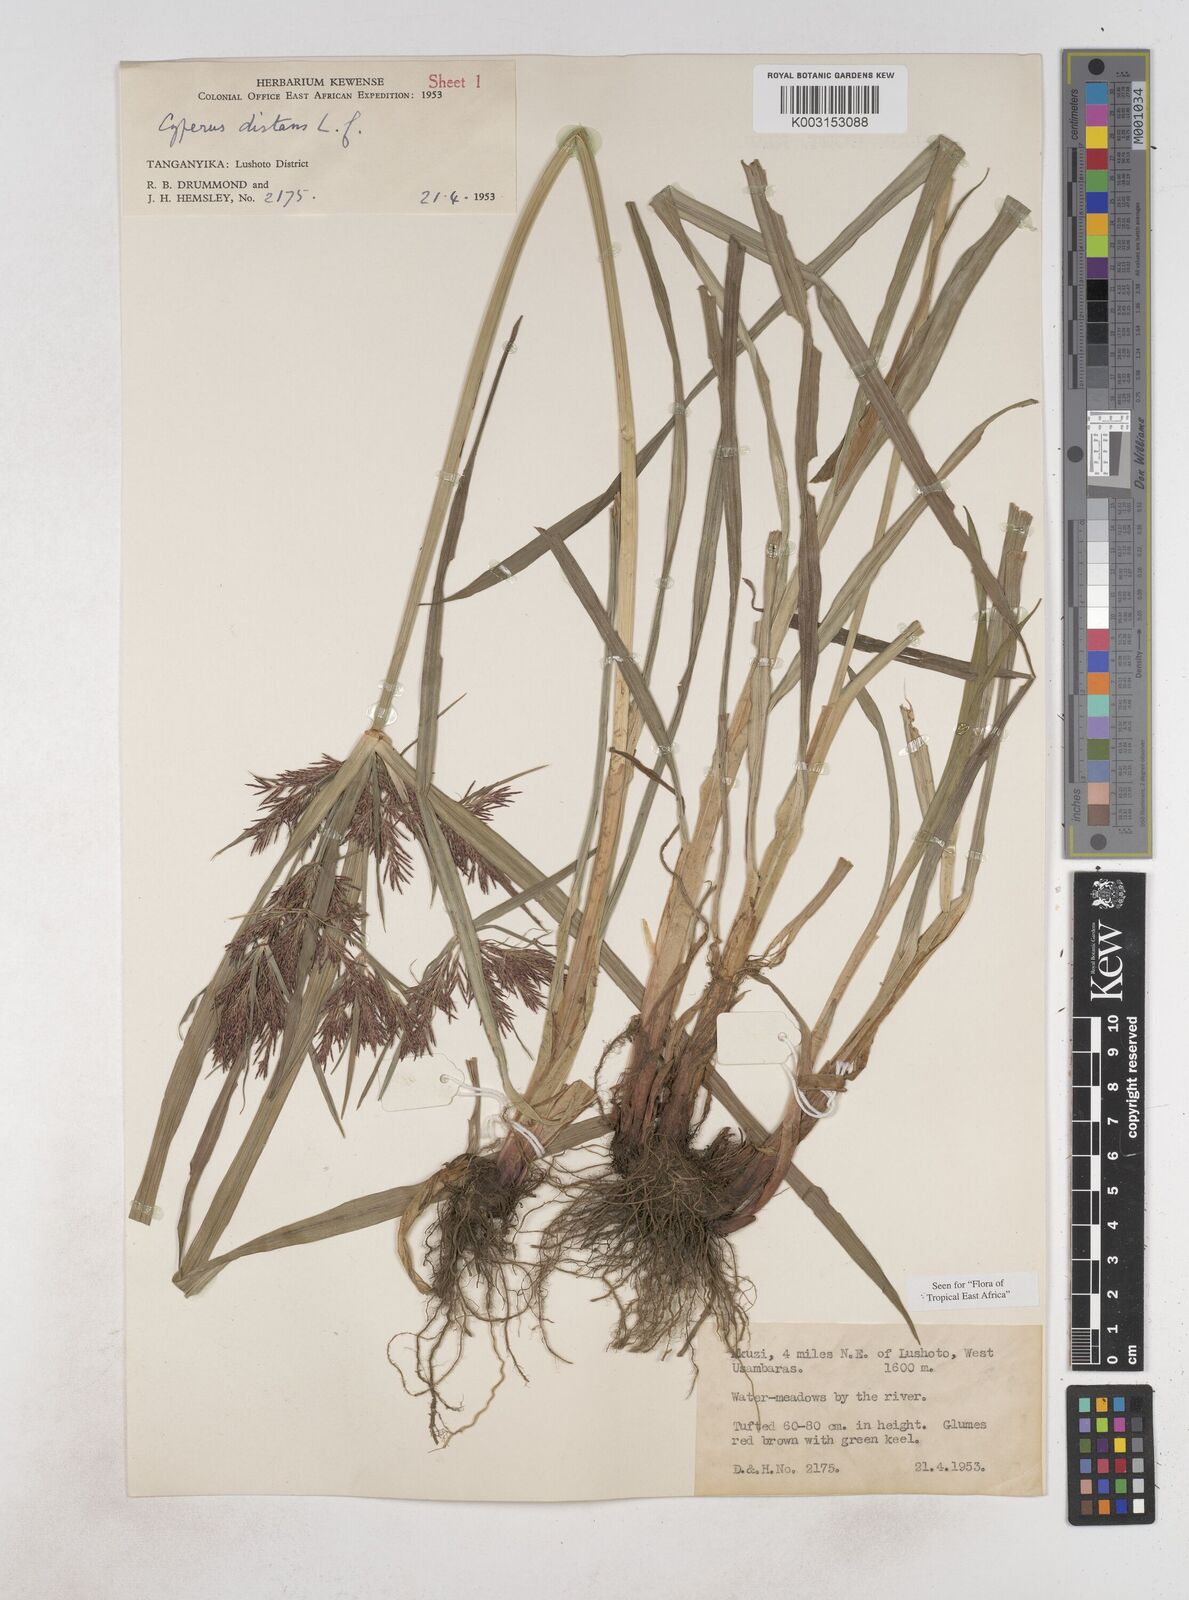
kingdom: Plantae
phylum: Tracheophyta
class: Liliopsida
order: Poales
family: Cyperaceae
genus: Cyperus
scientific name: Cyperus distans
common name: Slender cyperus
